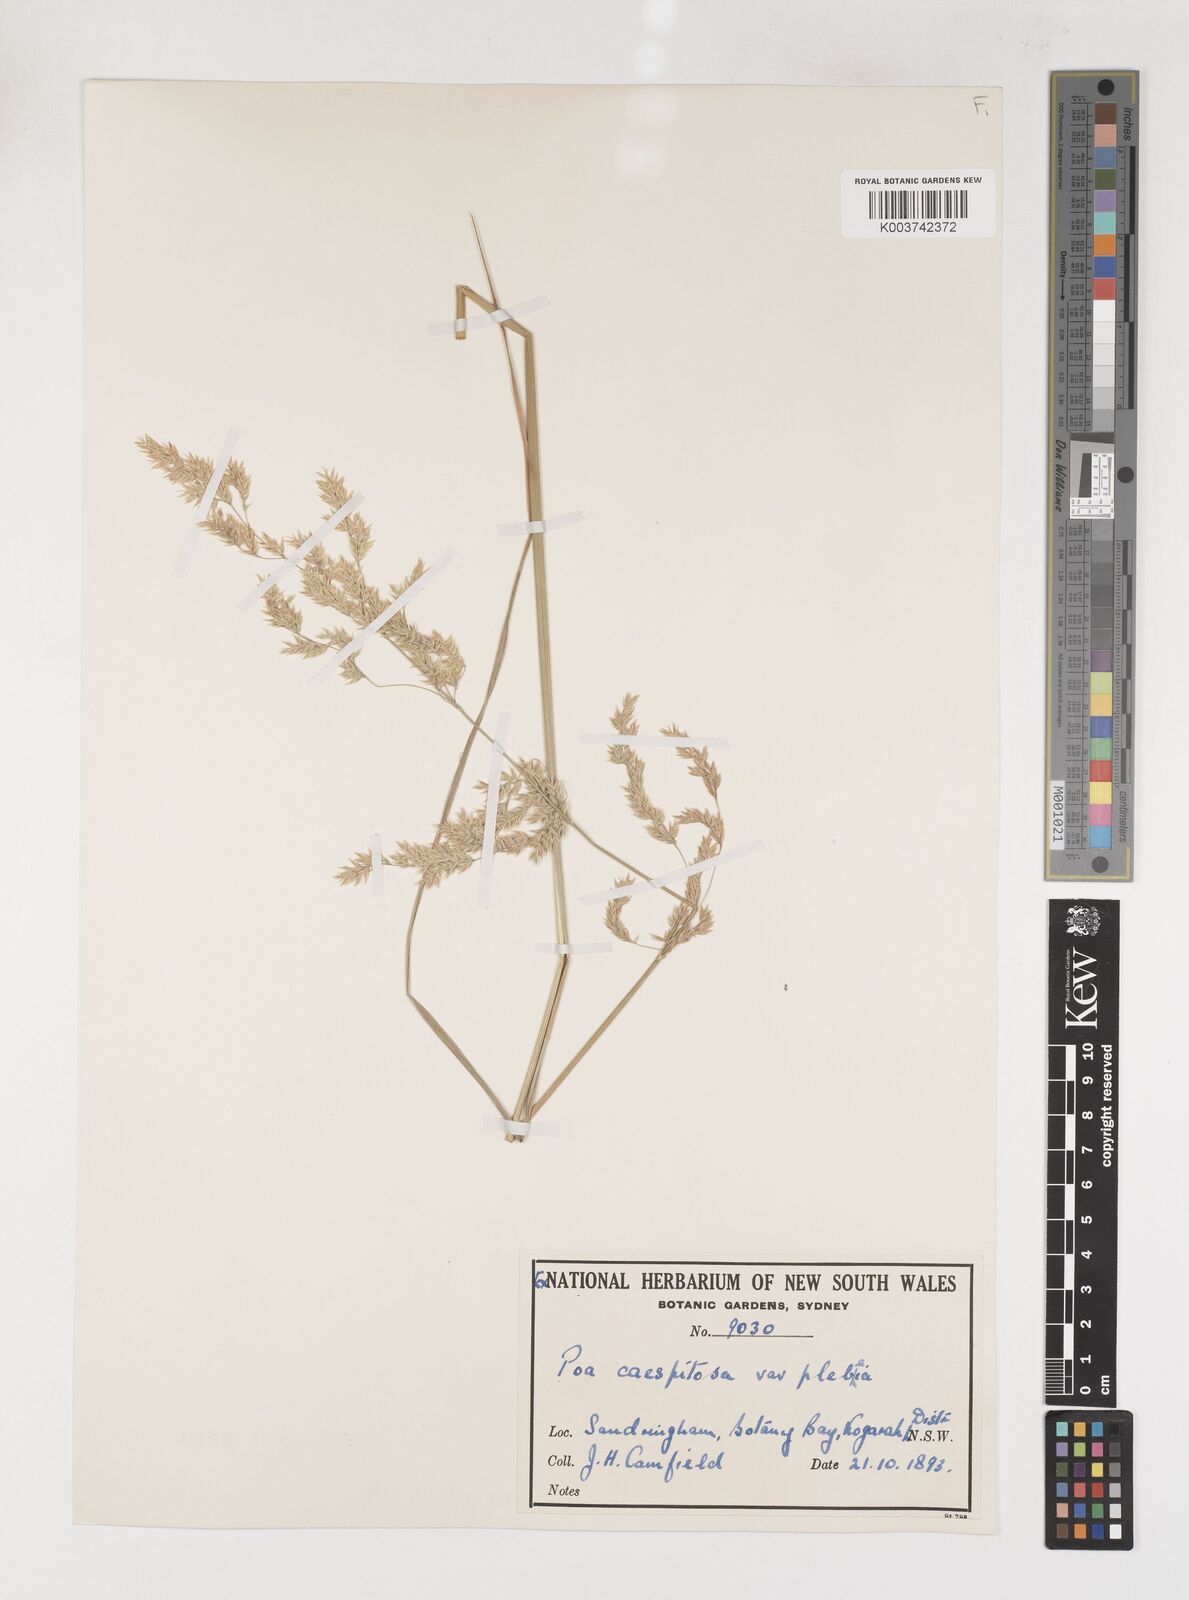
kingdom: Plantae
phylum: Tracheophyta
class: Liliopsida
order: Poales
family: Poaceae
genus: Poa
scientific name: Poa poiformis
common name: Tussock poa
